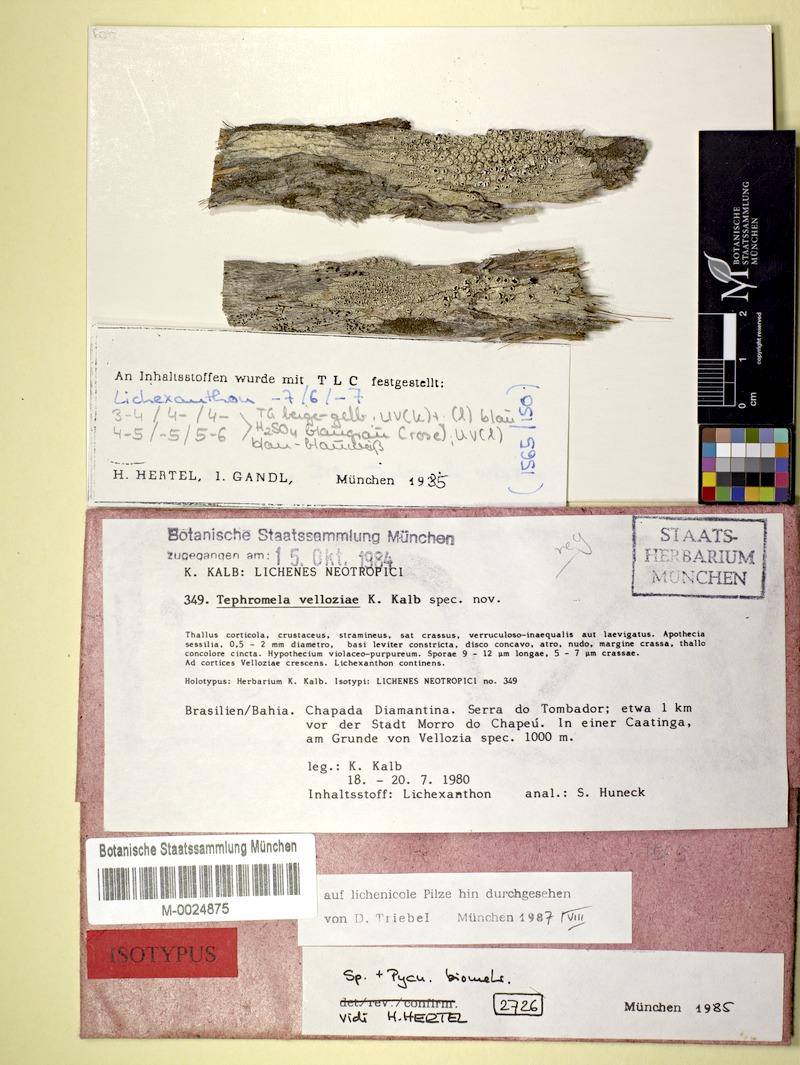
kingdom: Fungi
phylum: Ascomycota
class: Lecanoromycetes
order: Lecanorales
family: Tephromelataceae
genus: Tephromela
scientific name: Tephromela velloziae
